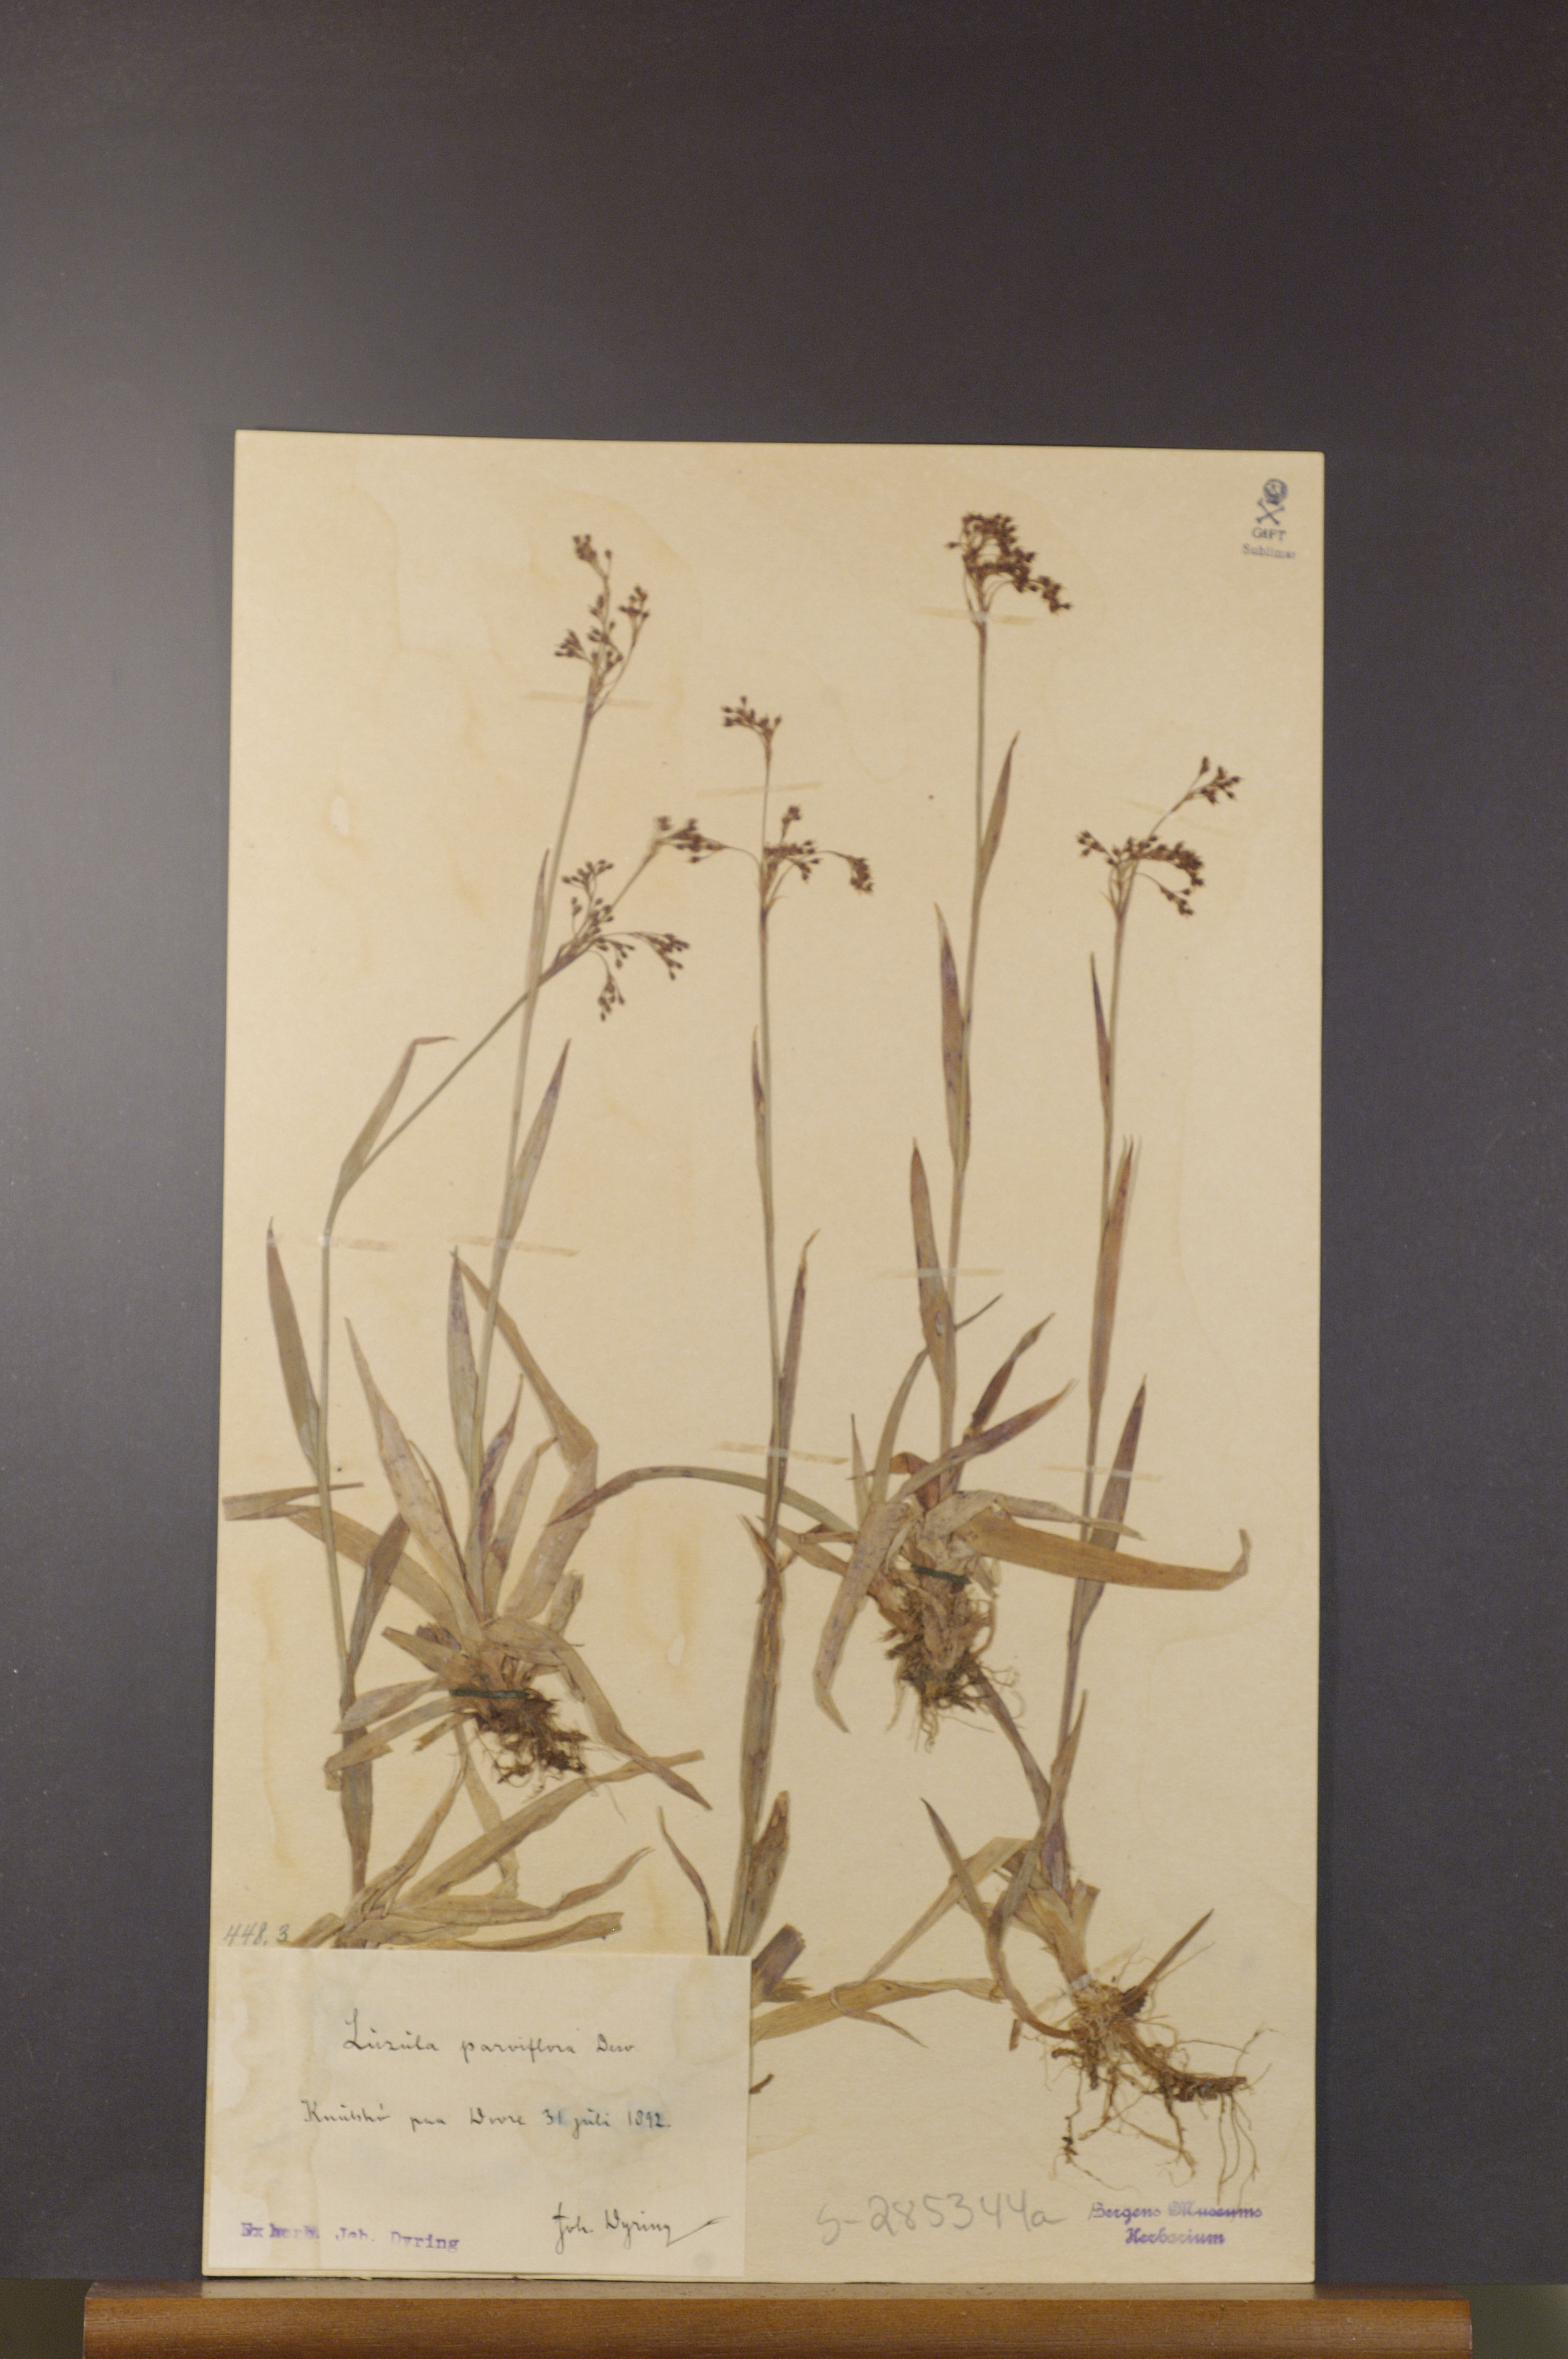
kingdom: Plantae
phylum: Tracheophyta
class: Liliopsida
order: Poales
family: Juncaceae
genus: Luzula
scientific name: Luzula parviflora
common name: Millet woodrush
